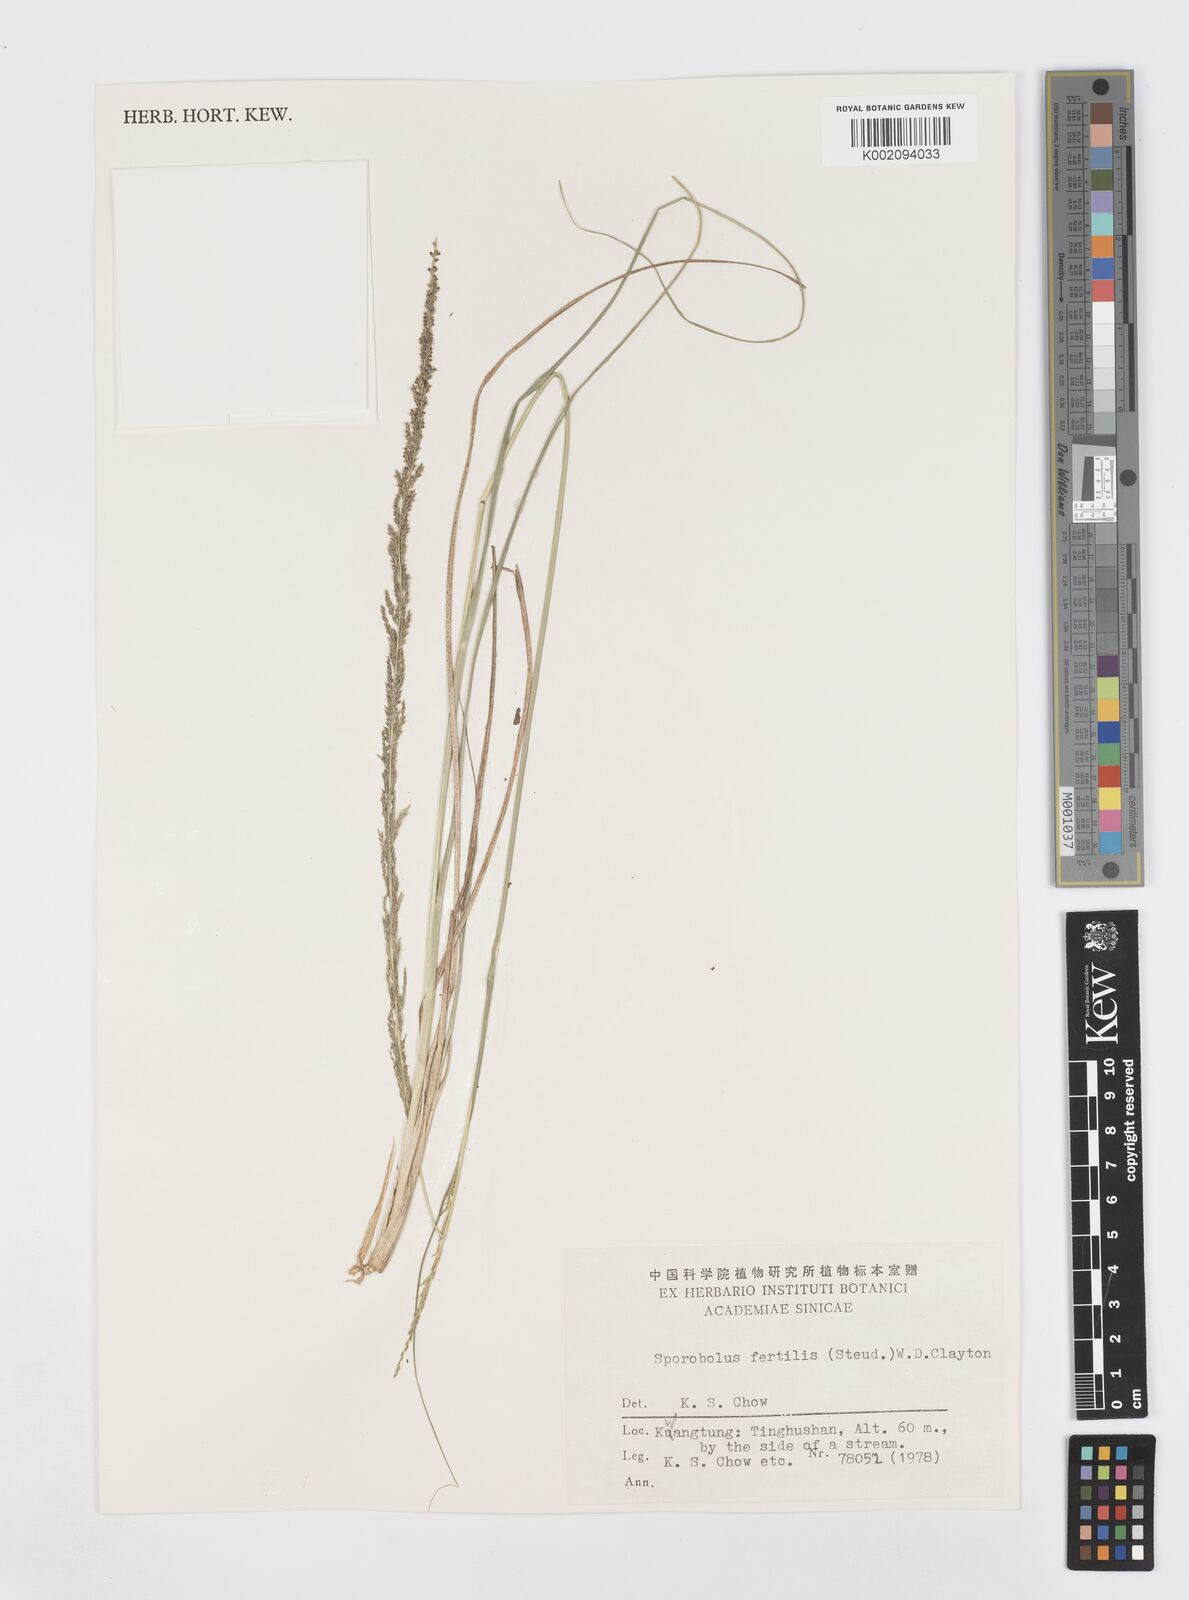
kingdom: Plantae
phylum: Tracheophyta
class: Liliopsida
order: Poales
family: Poaceae
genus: Sporobolus
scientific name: Sporobolus fertilis
